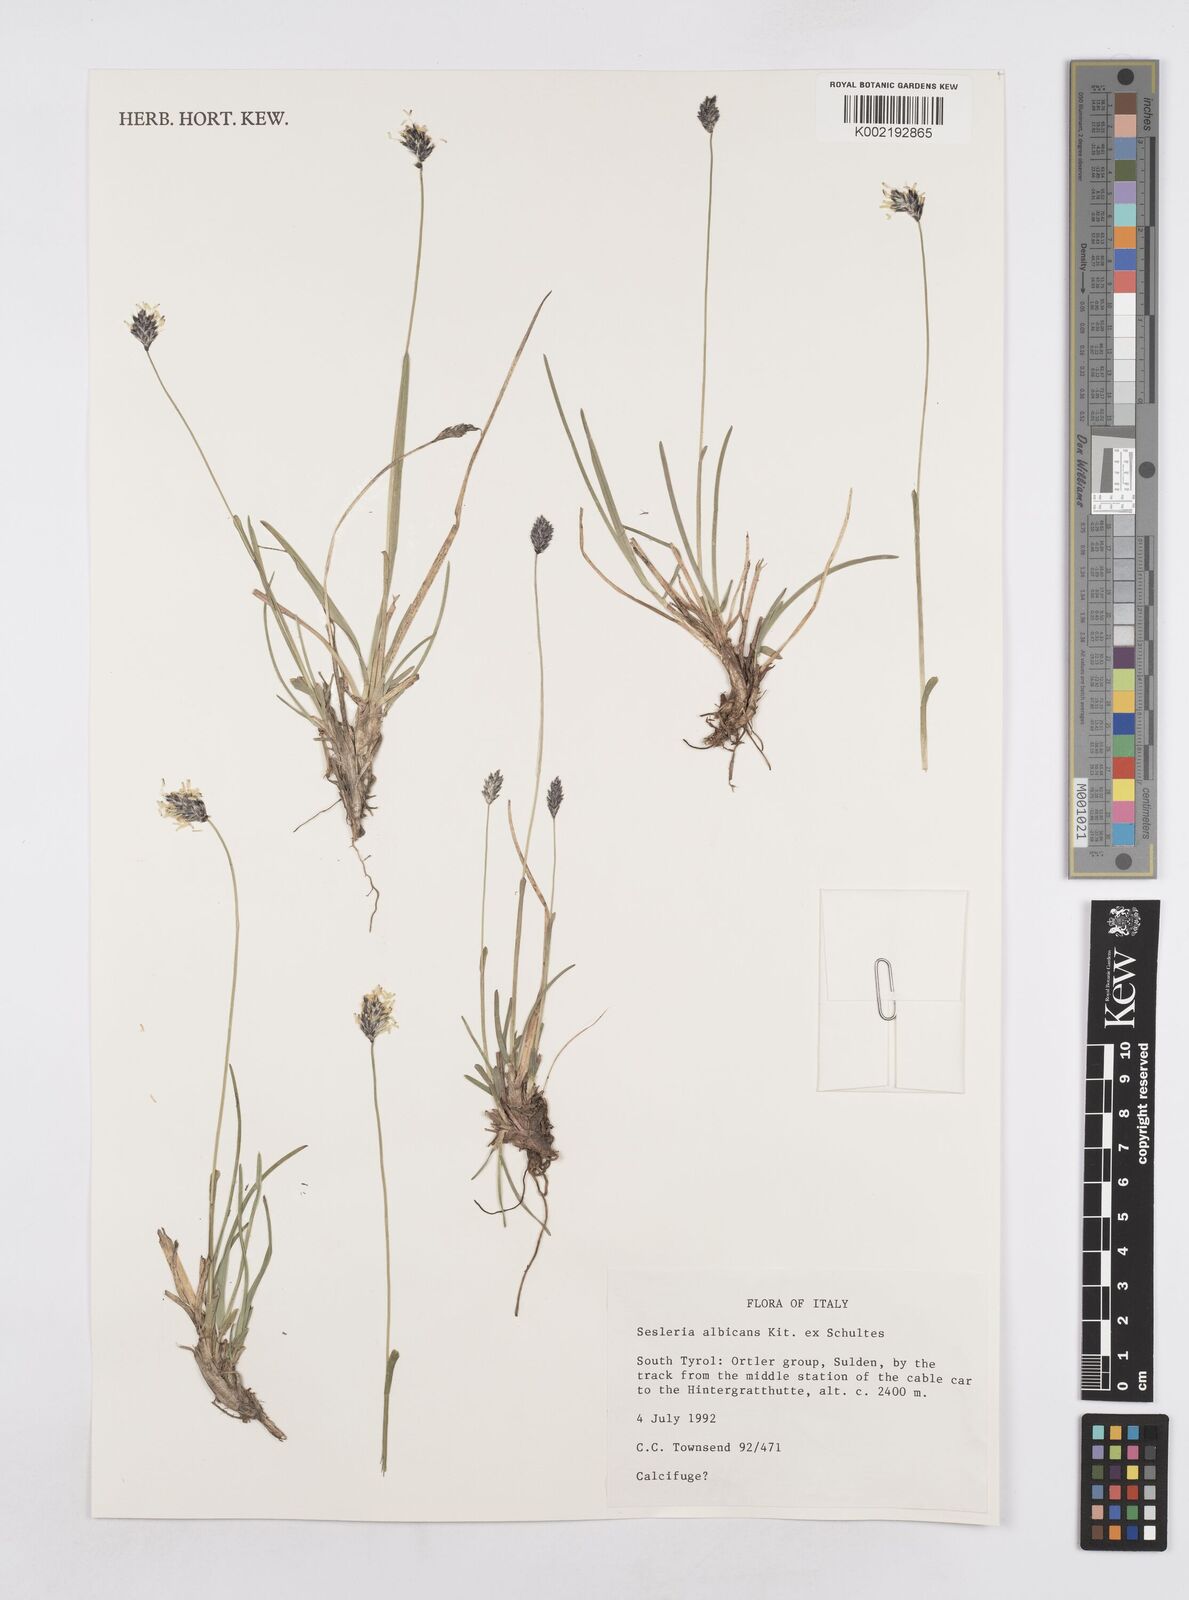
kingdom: Plantae
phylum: Tracheophyta
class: Liliopsida
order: Poales
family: Poaceae
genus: Sesleria
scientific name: Sesleria albicans
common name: Blue moor-grass
